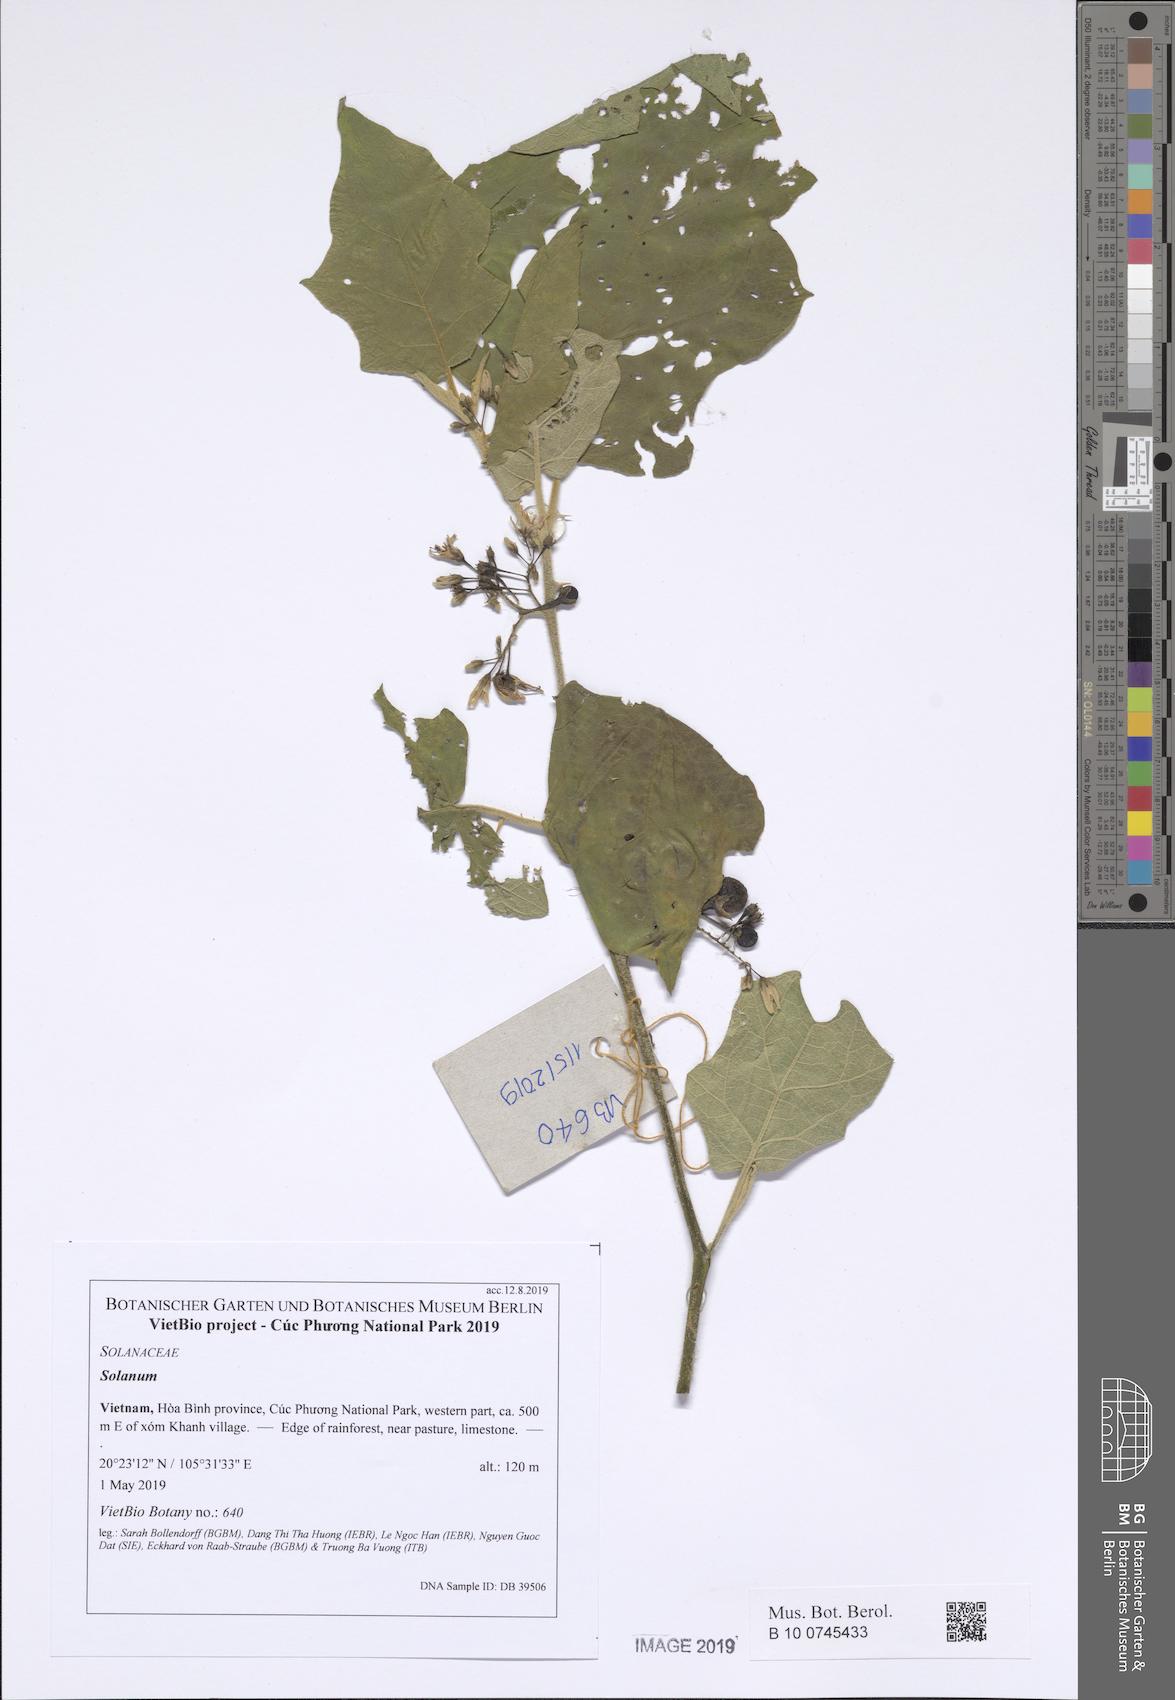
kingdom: Plantae
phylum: Tracheophyta
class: Magnoliopsida
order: Solanales
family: Solanaceae
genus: Solanum
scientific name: Solanum torvum
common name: Turkey berry
